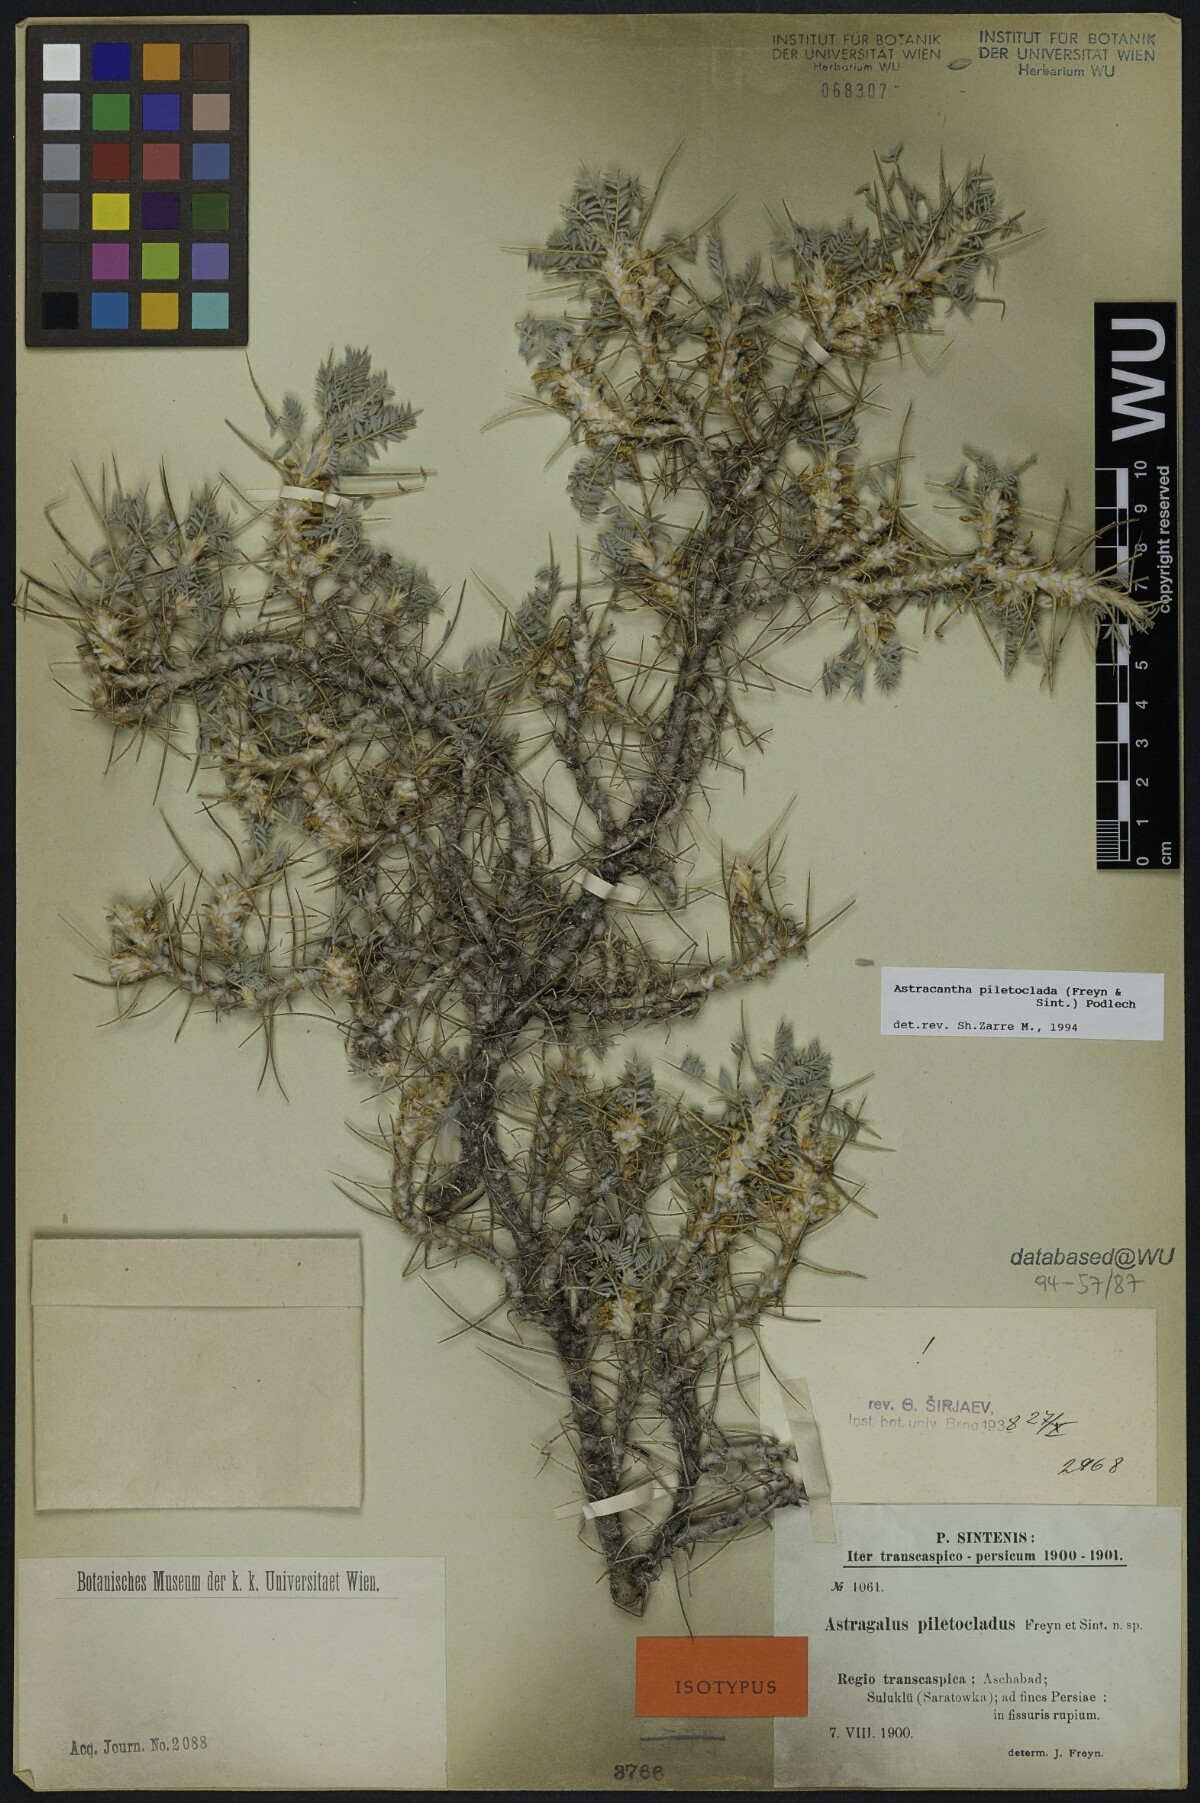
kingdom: Plantae
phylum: Tracheophyta
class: Magnoliopsida
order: Fabales
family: Fabaceae
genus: Astragalus
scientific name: Astragalus verus
